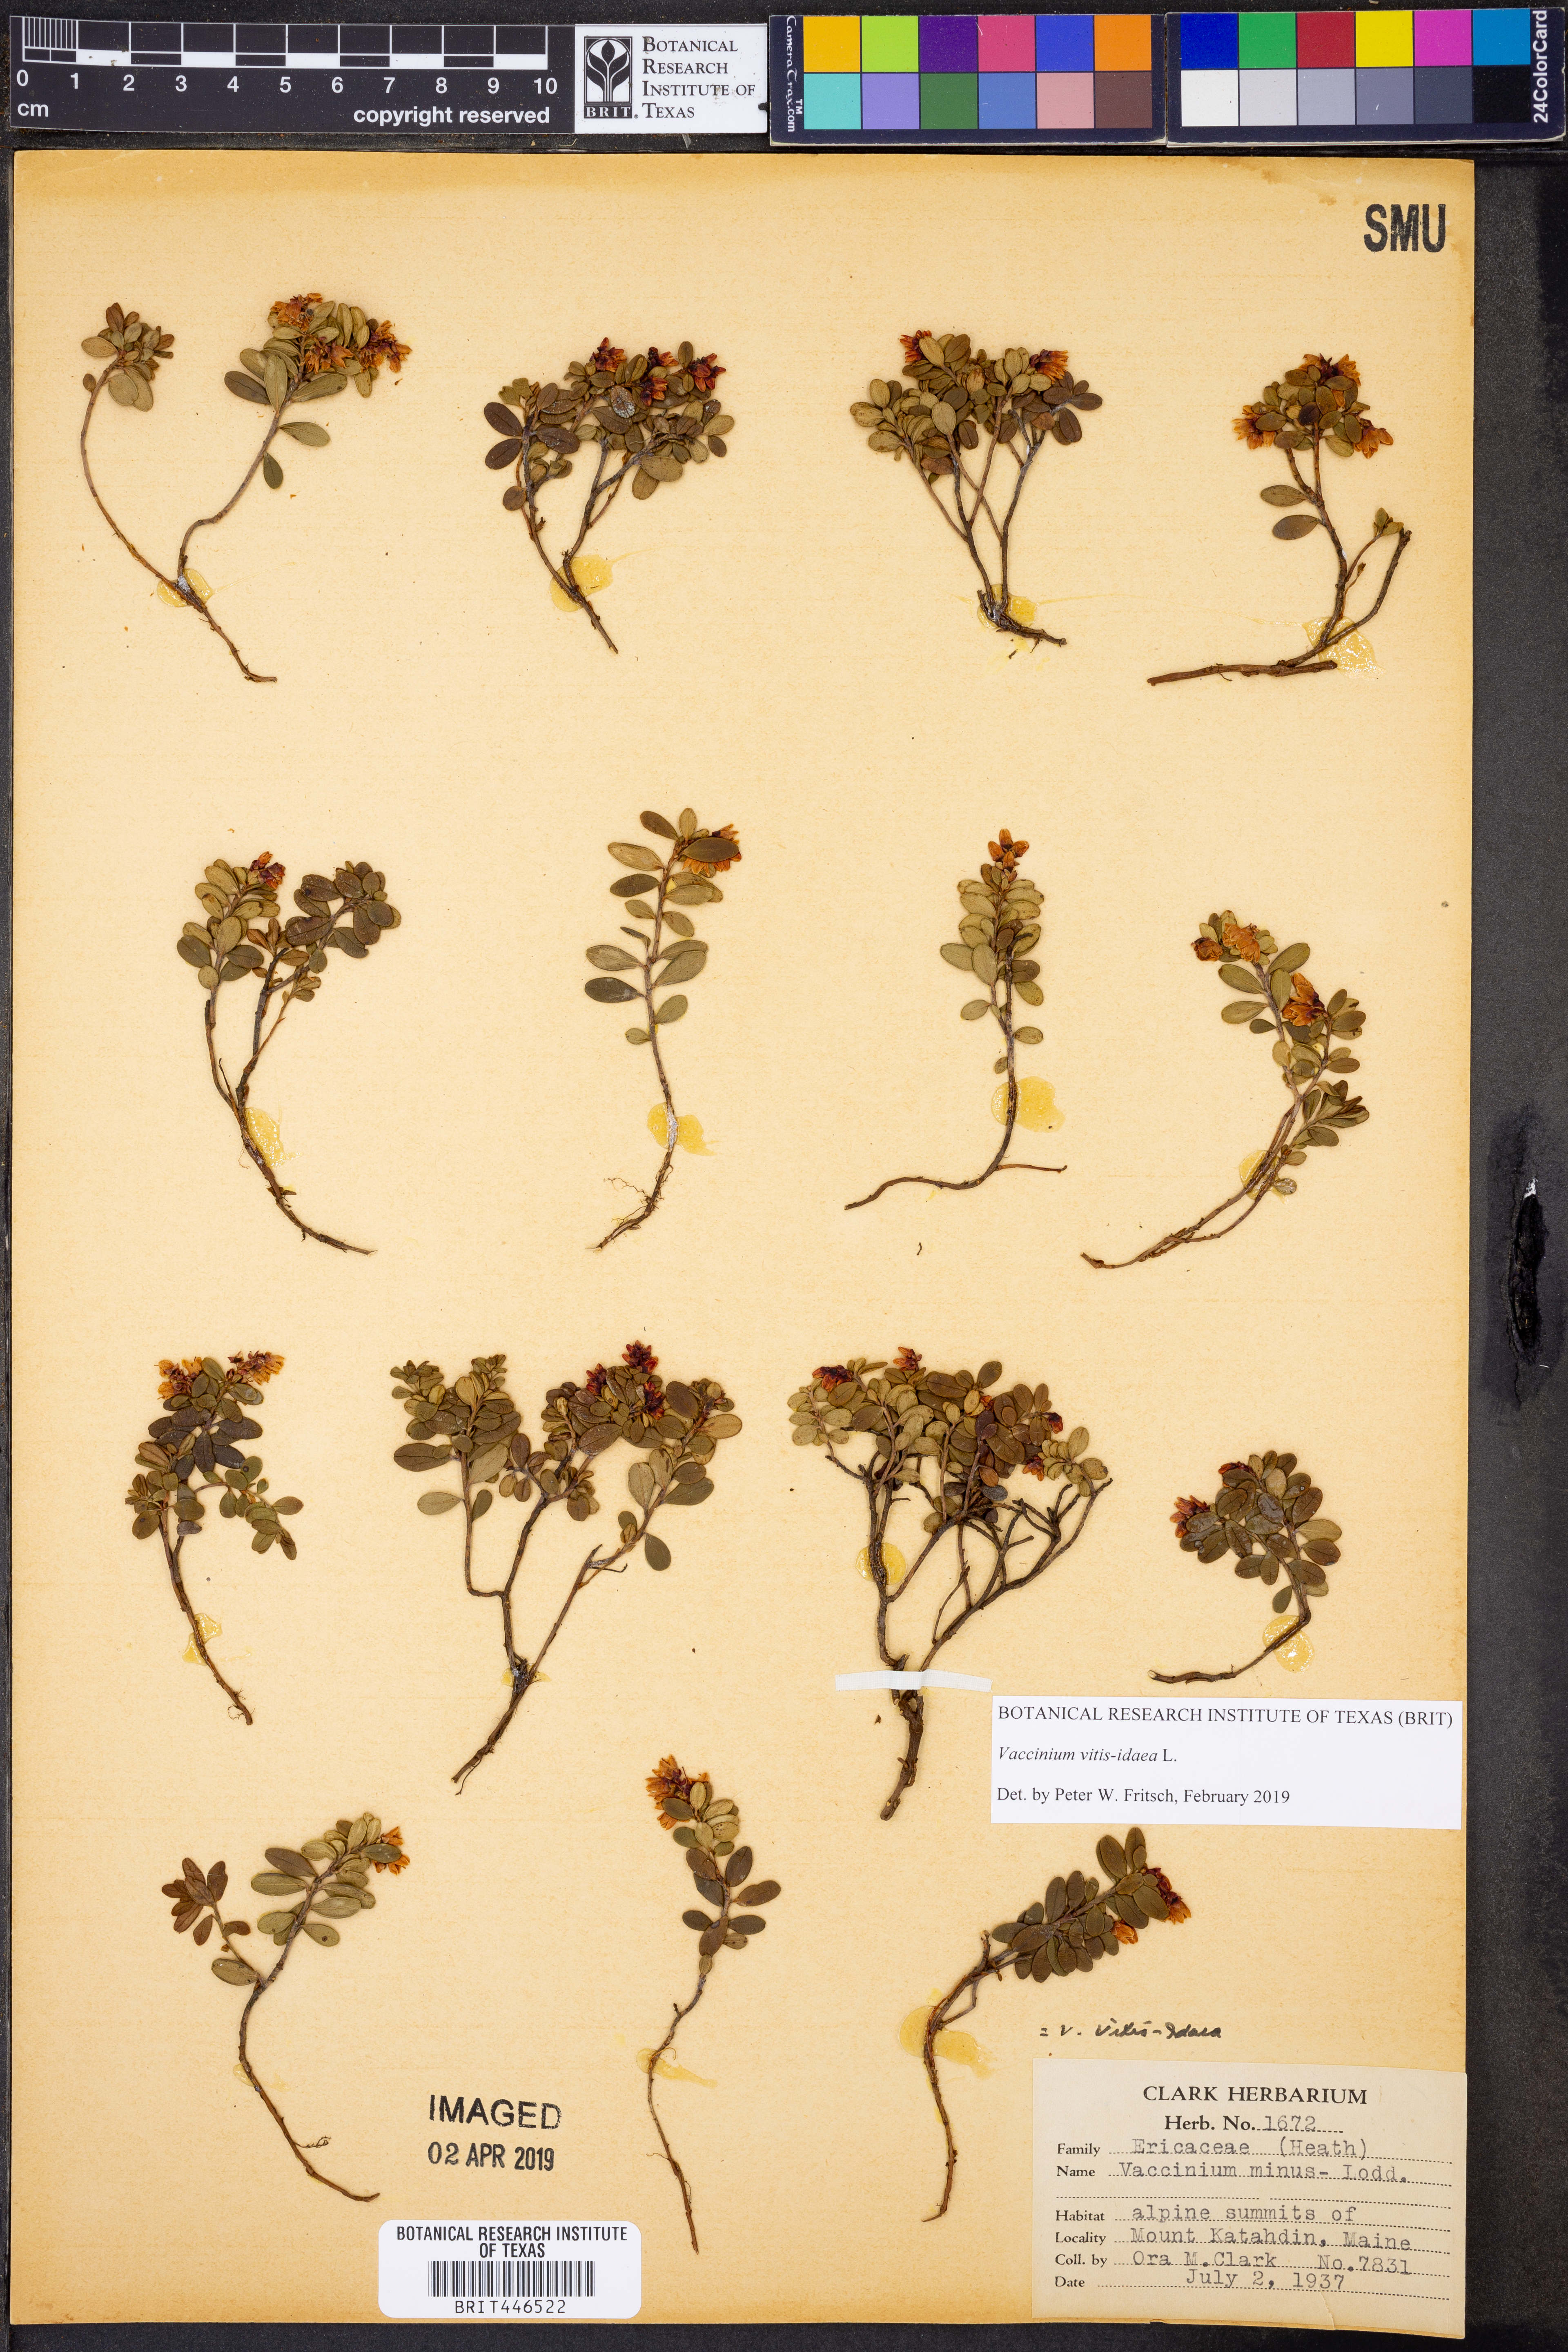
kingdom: Plantae
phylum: Tracheophyta
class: Magnoliopsida
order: Ericales
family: Ericaceae
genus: Vaccinium
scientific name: Vaccinium vitis-idaea
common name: Cowberry
